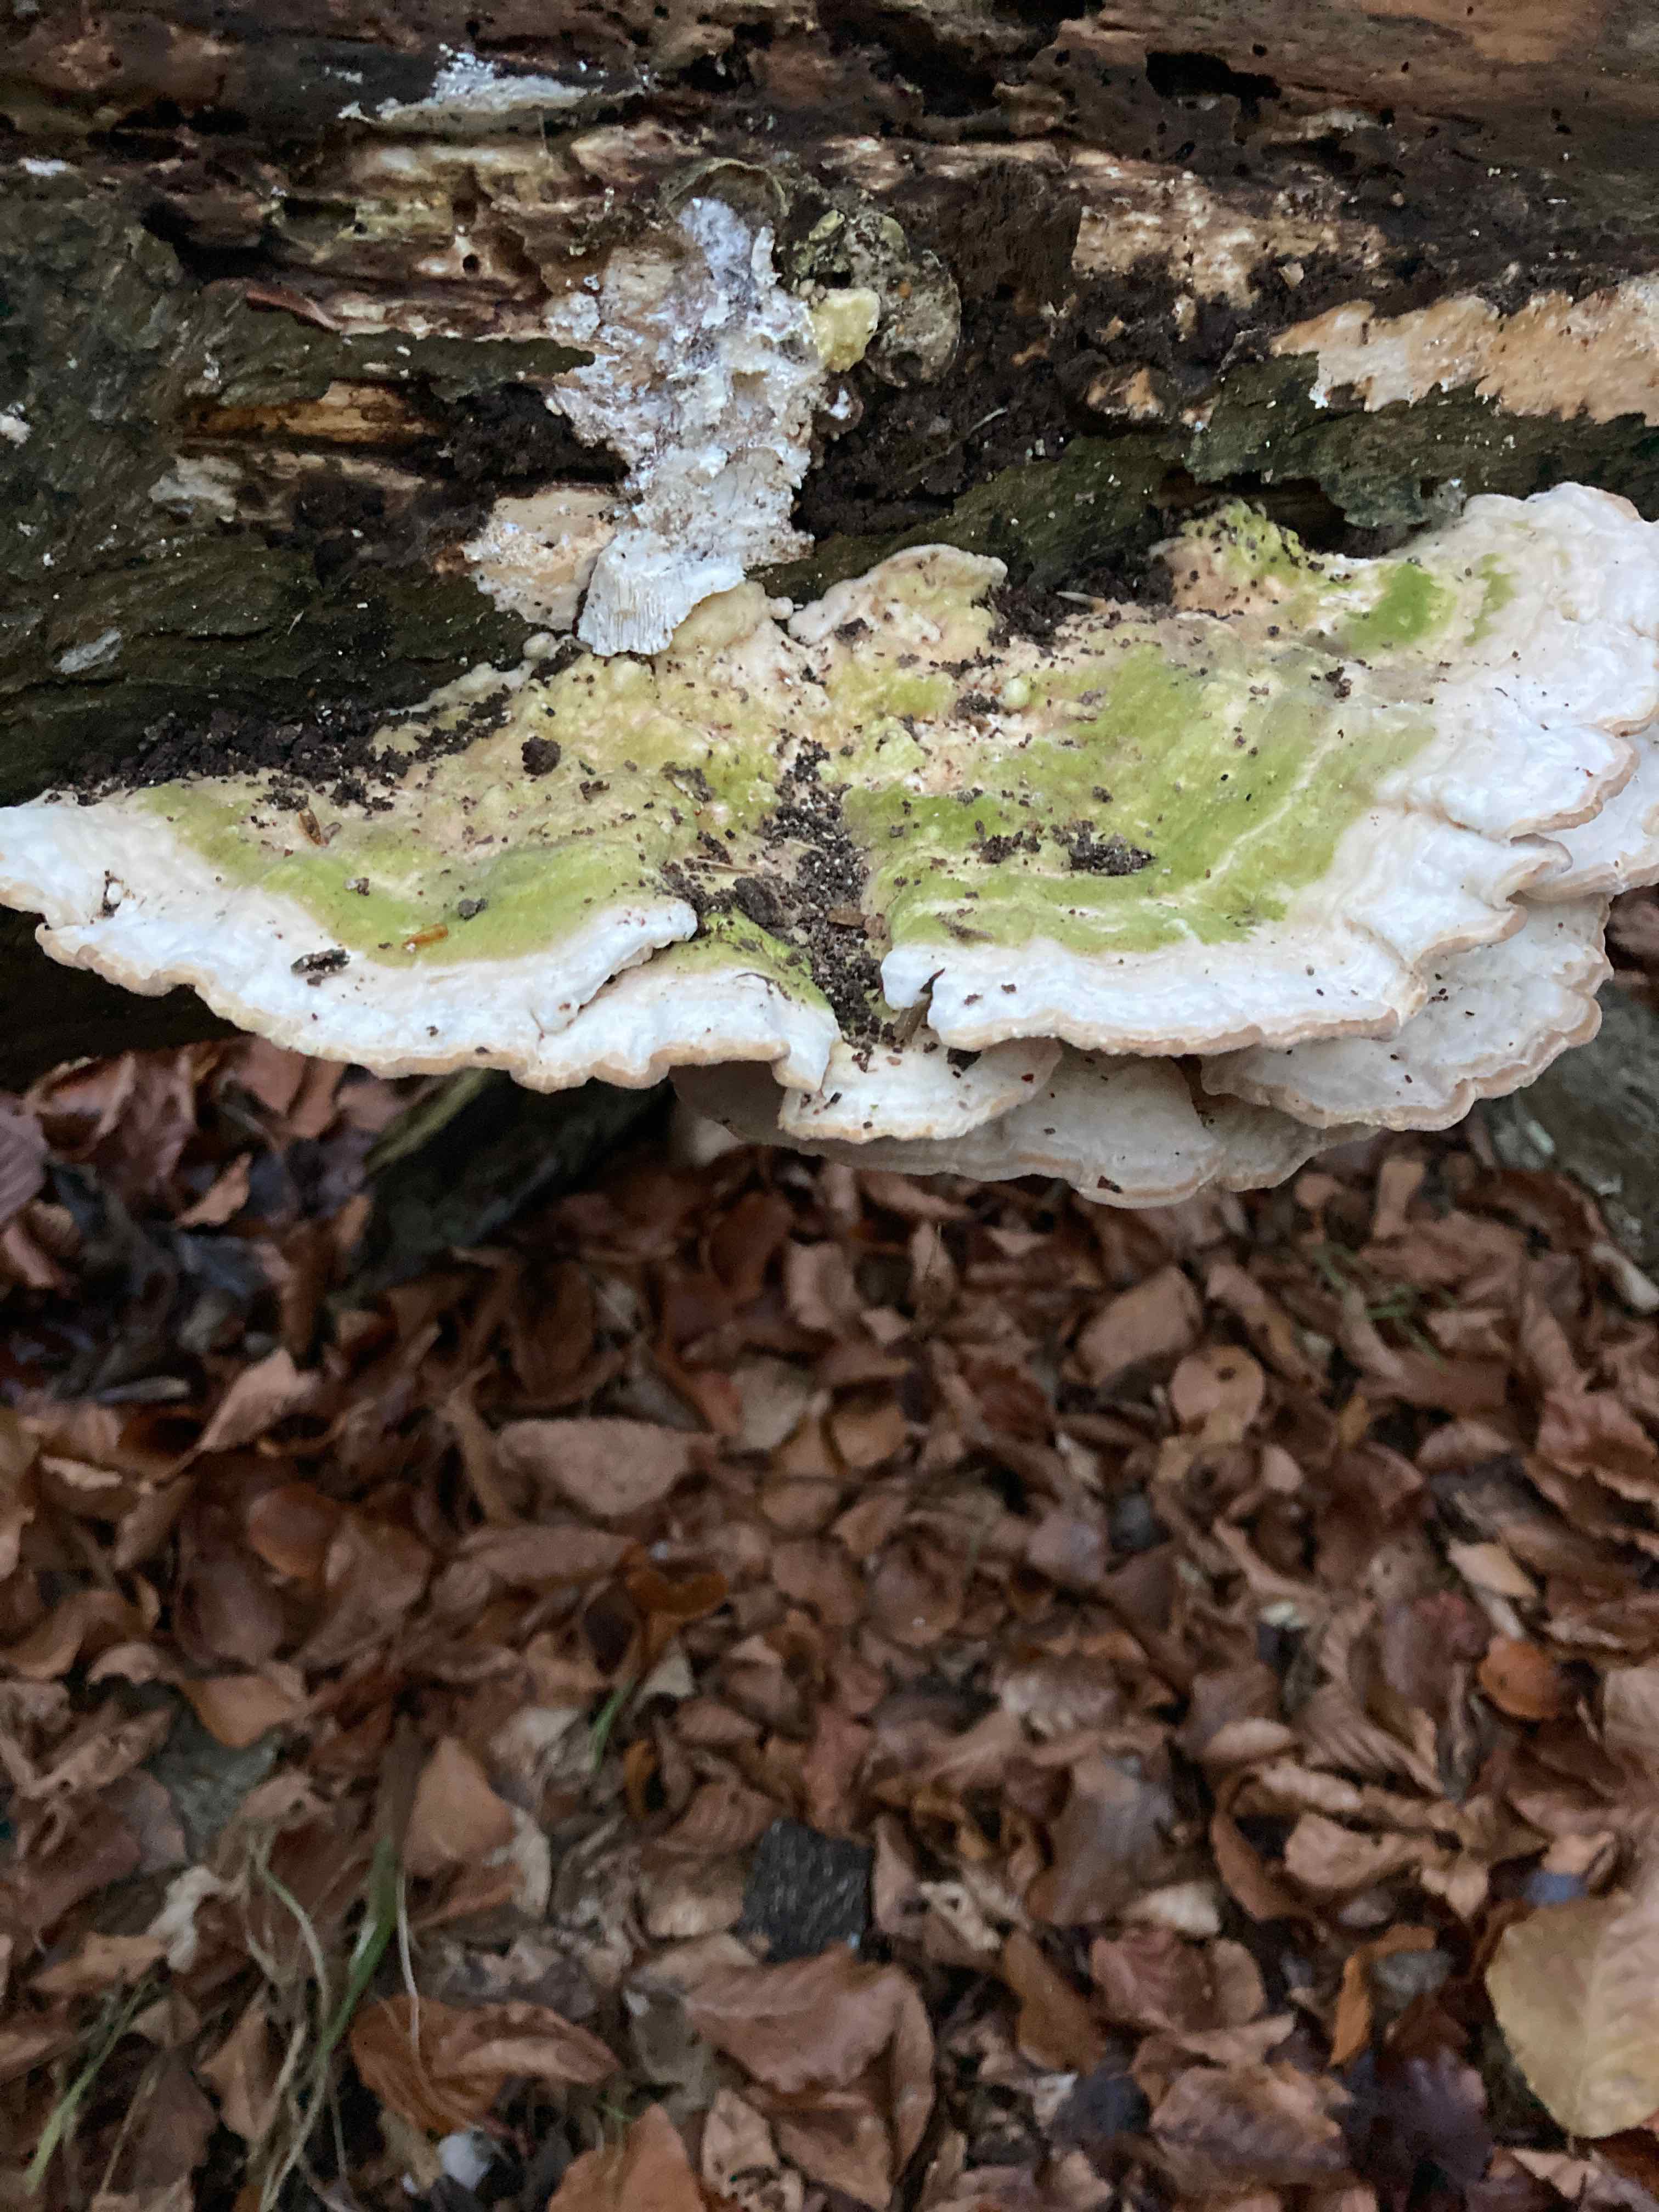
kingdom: Fungi
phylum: Basidiomycota
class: Agaricomycetes
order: Polyporales
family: Polyporaceae
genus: Trametes
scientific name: Trametes hirsuta
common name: håret læderporesvamp
